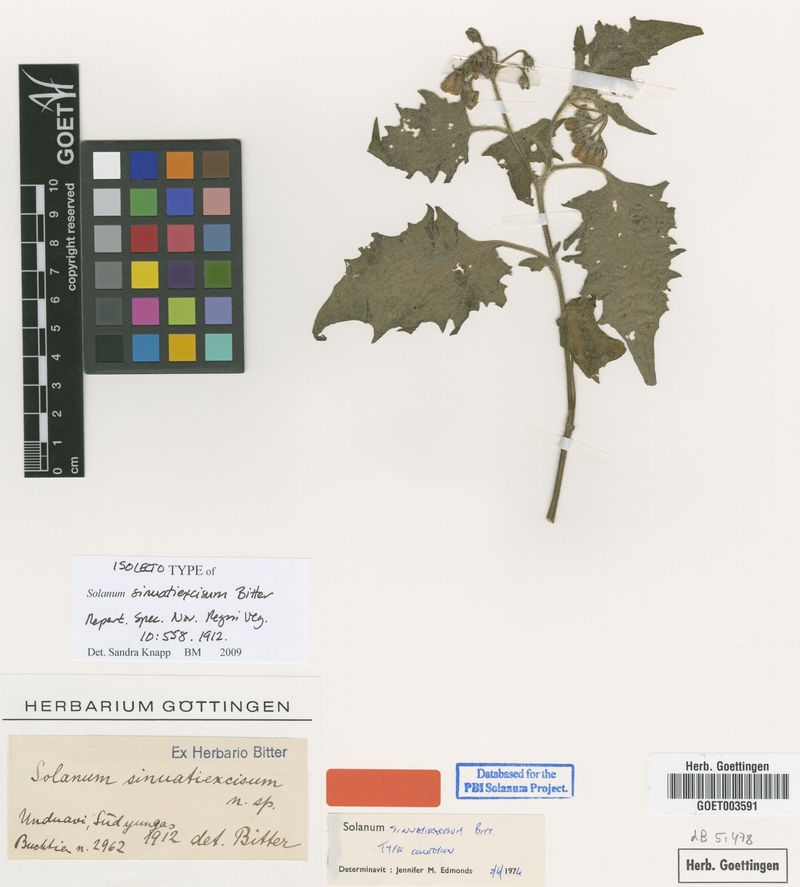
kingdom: Plantae
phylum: Tracheophyta
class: Magnoliopsida
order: Solanales
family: Solanaceae
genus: Solanum
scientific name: Solanum sinuatiexcisum
